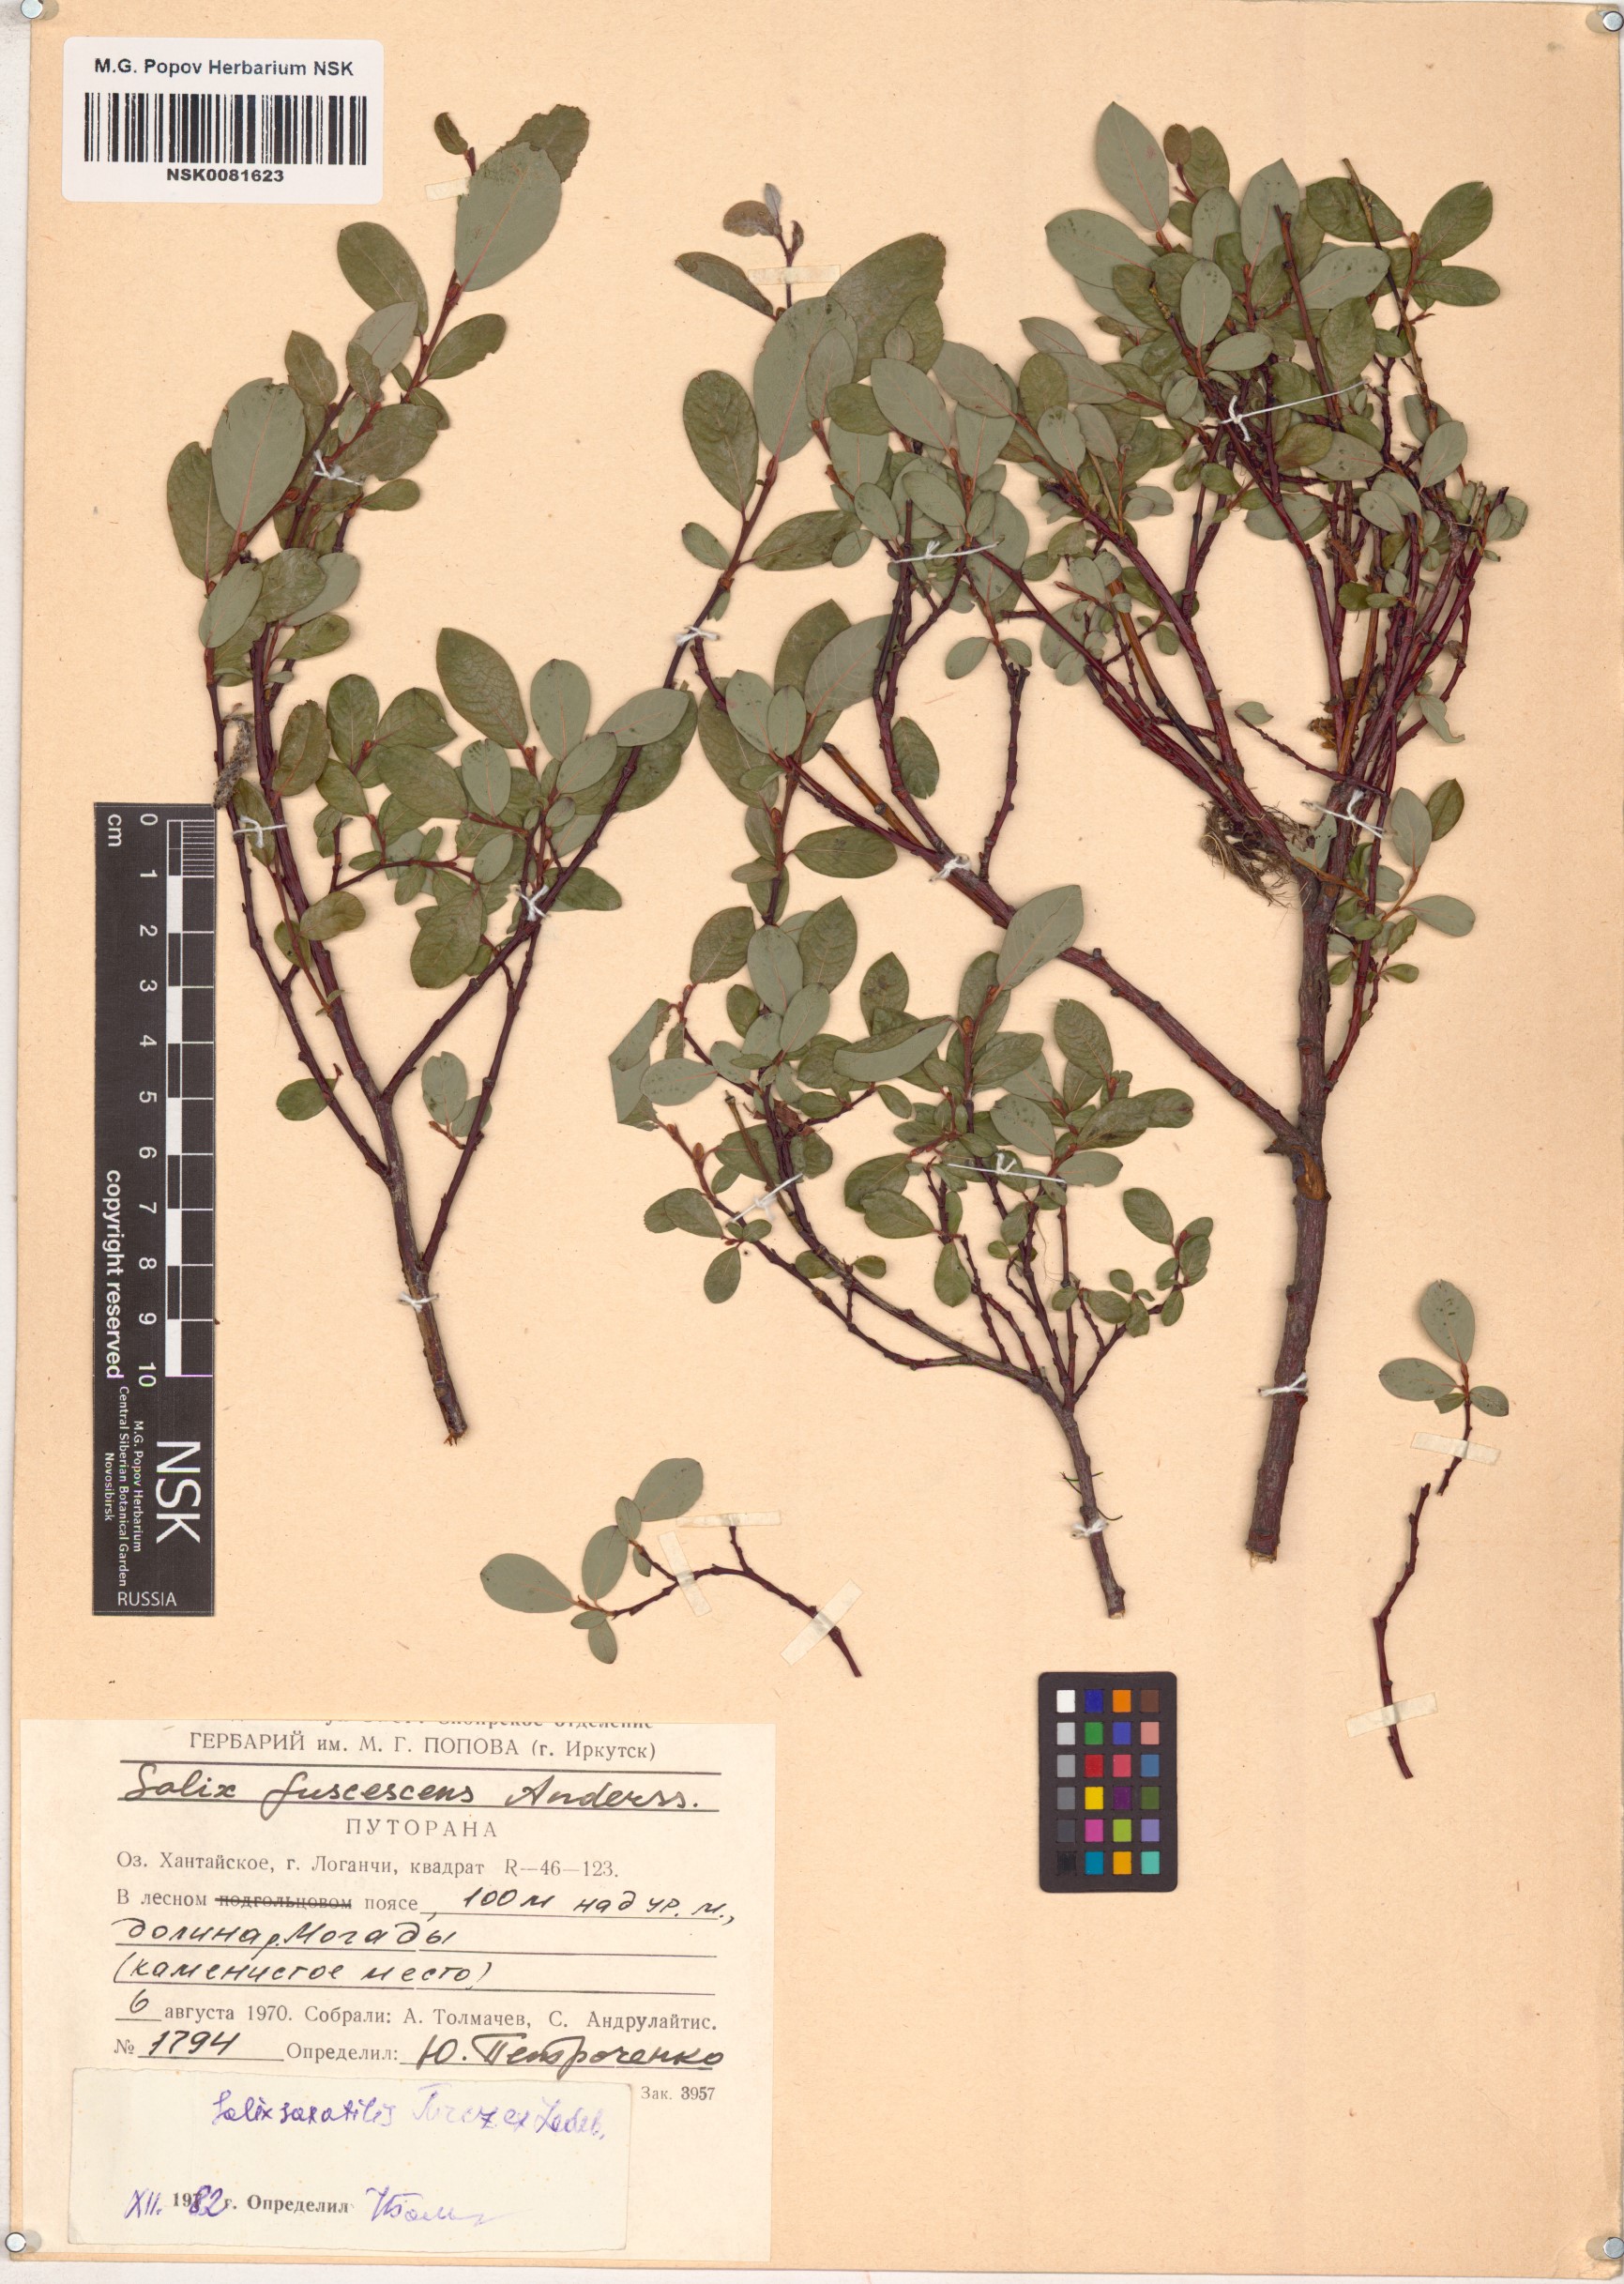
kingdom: Plantae
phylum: Tracheophyta
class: Magnoliopsida
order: Malpighiales
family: Salicaceae
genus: Salix
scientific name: Salix saxatilis
